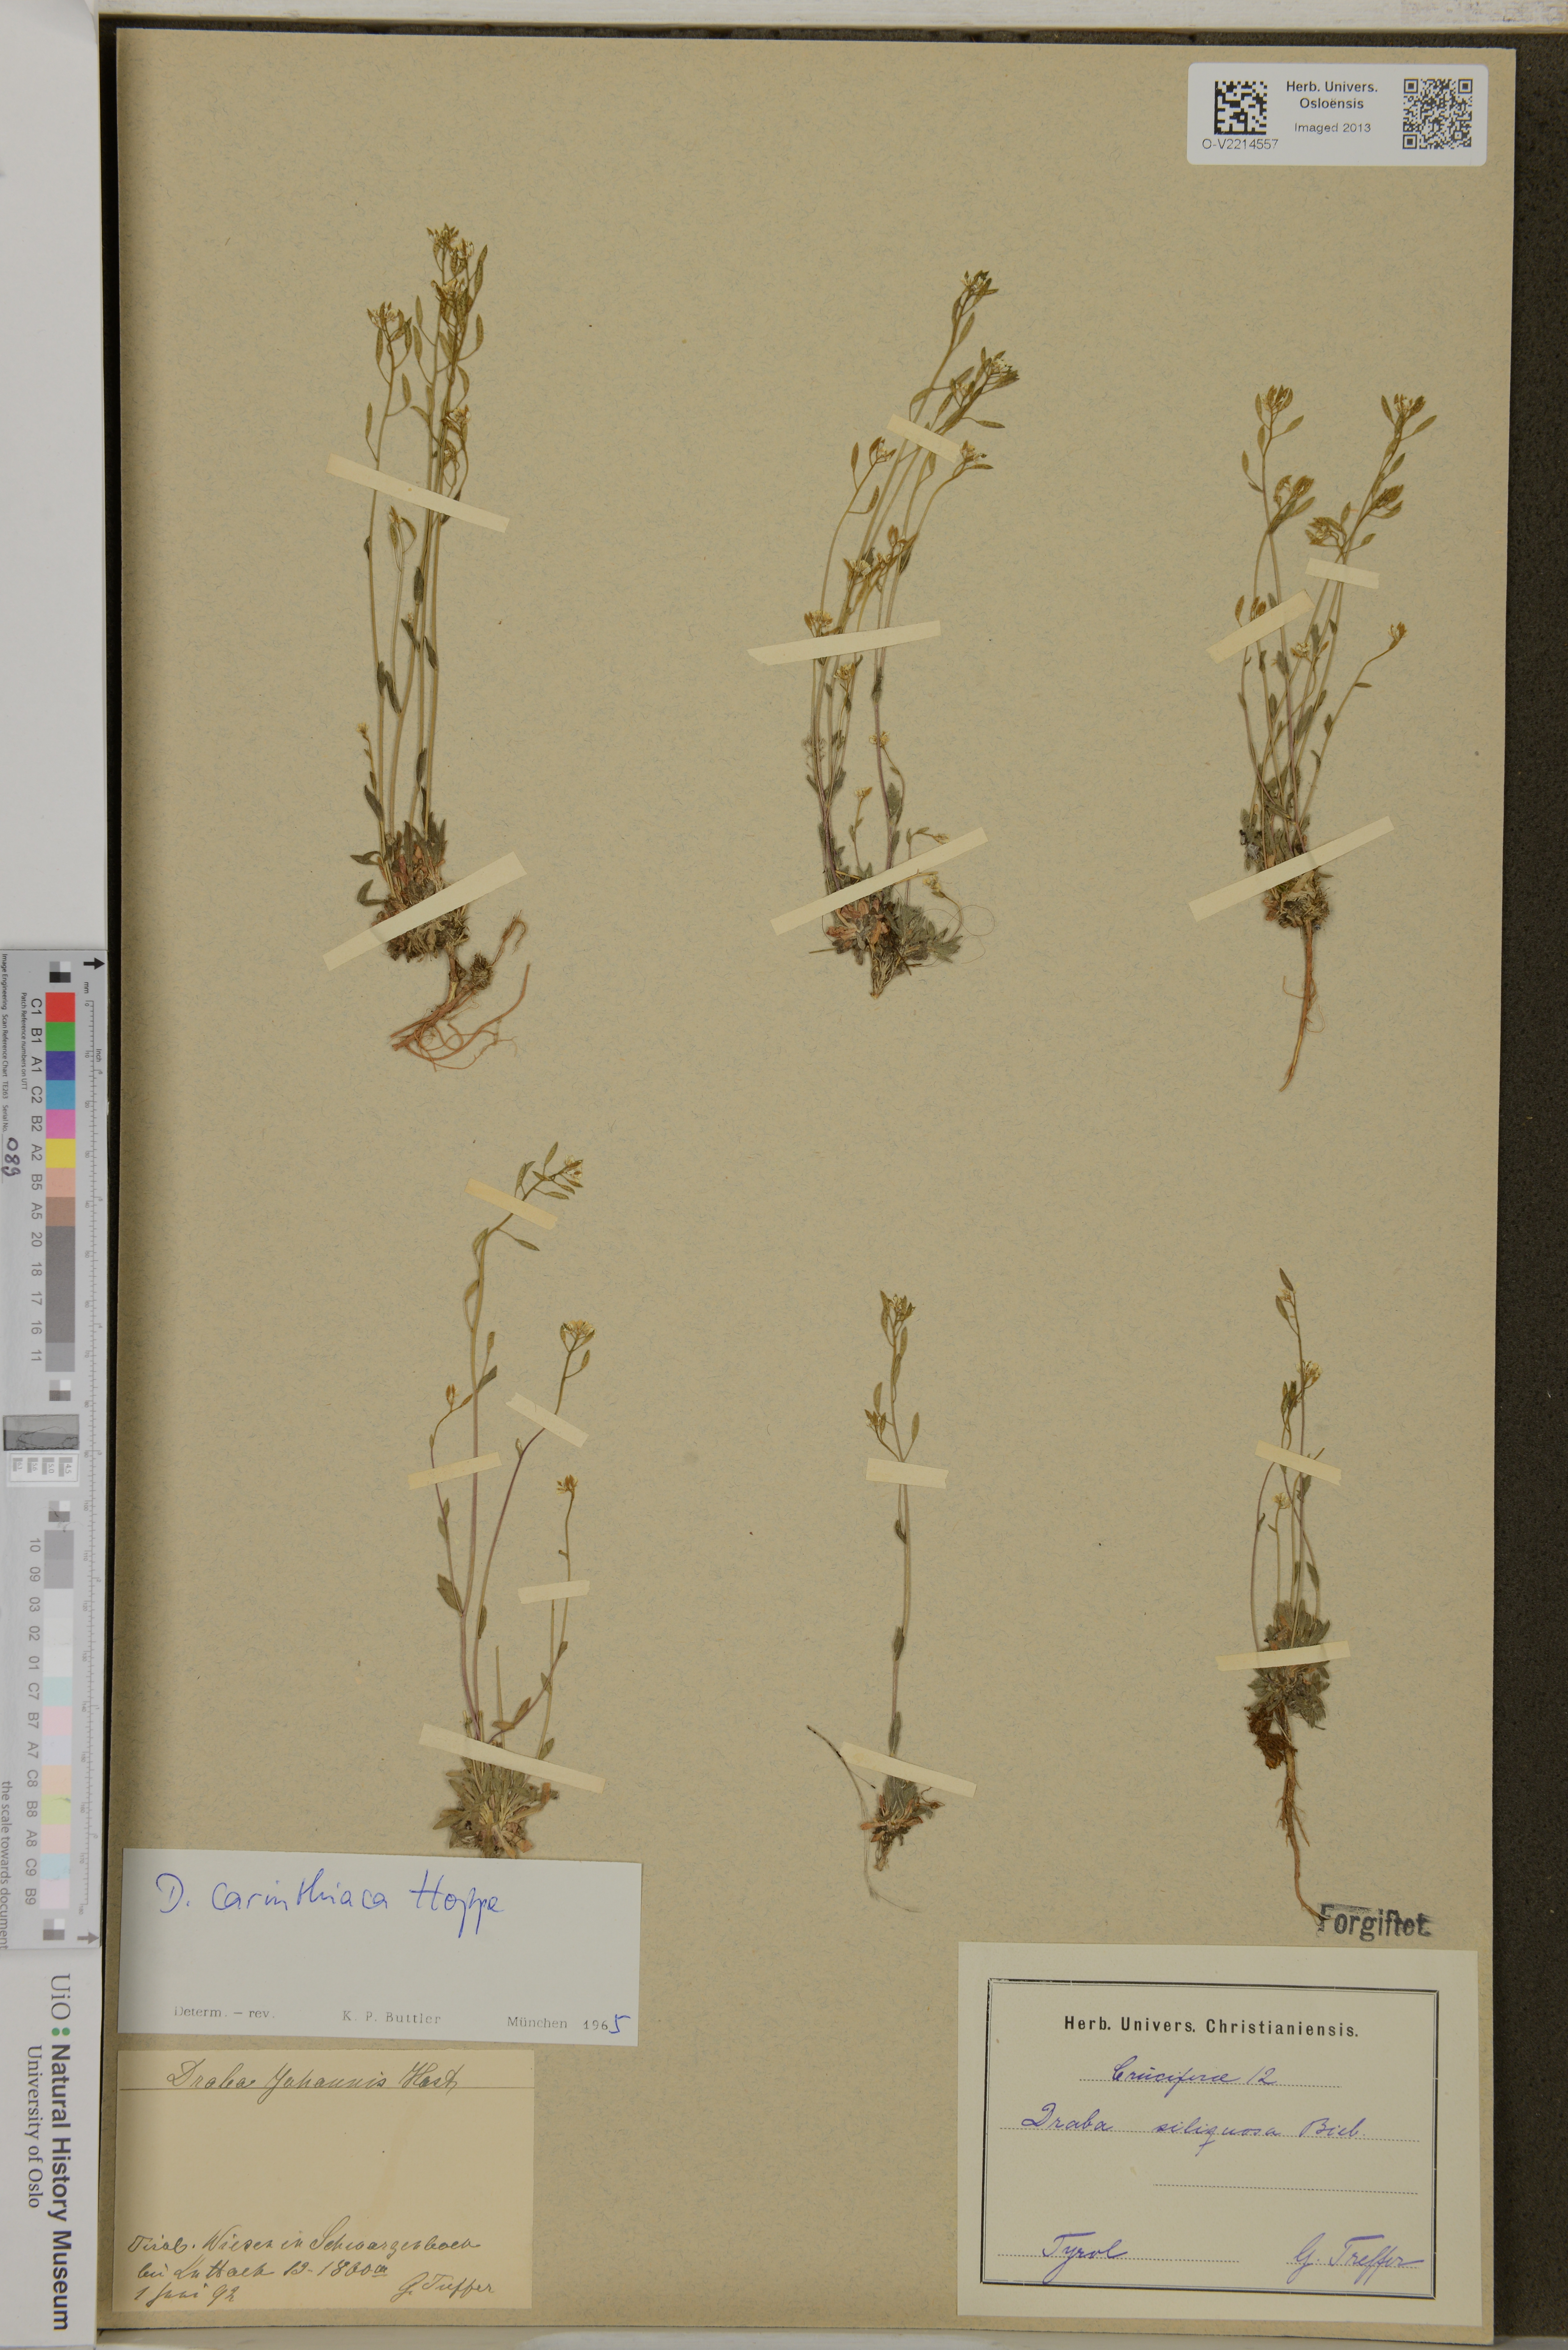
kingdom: Plantae
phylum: Tracheophyta
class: Magnoliopsida
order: Brassicales
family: Brassicaceae
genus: Draba
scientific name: Draba siliquosa
